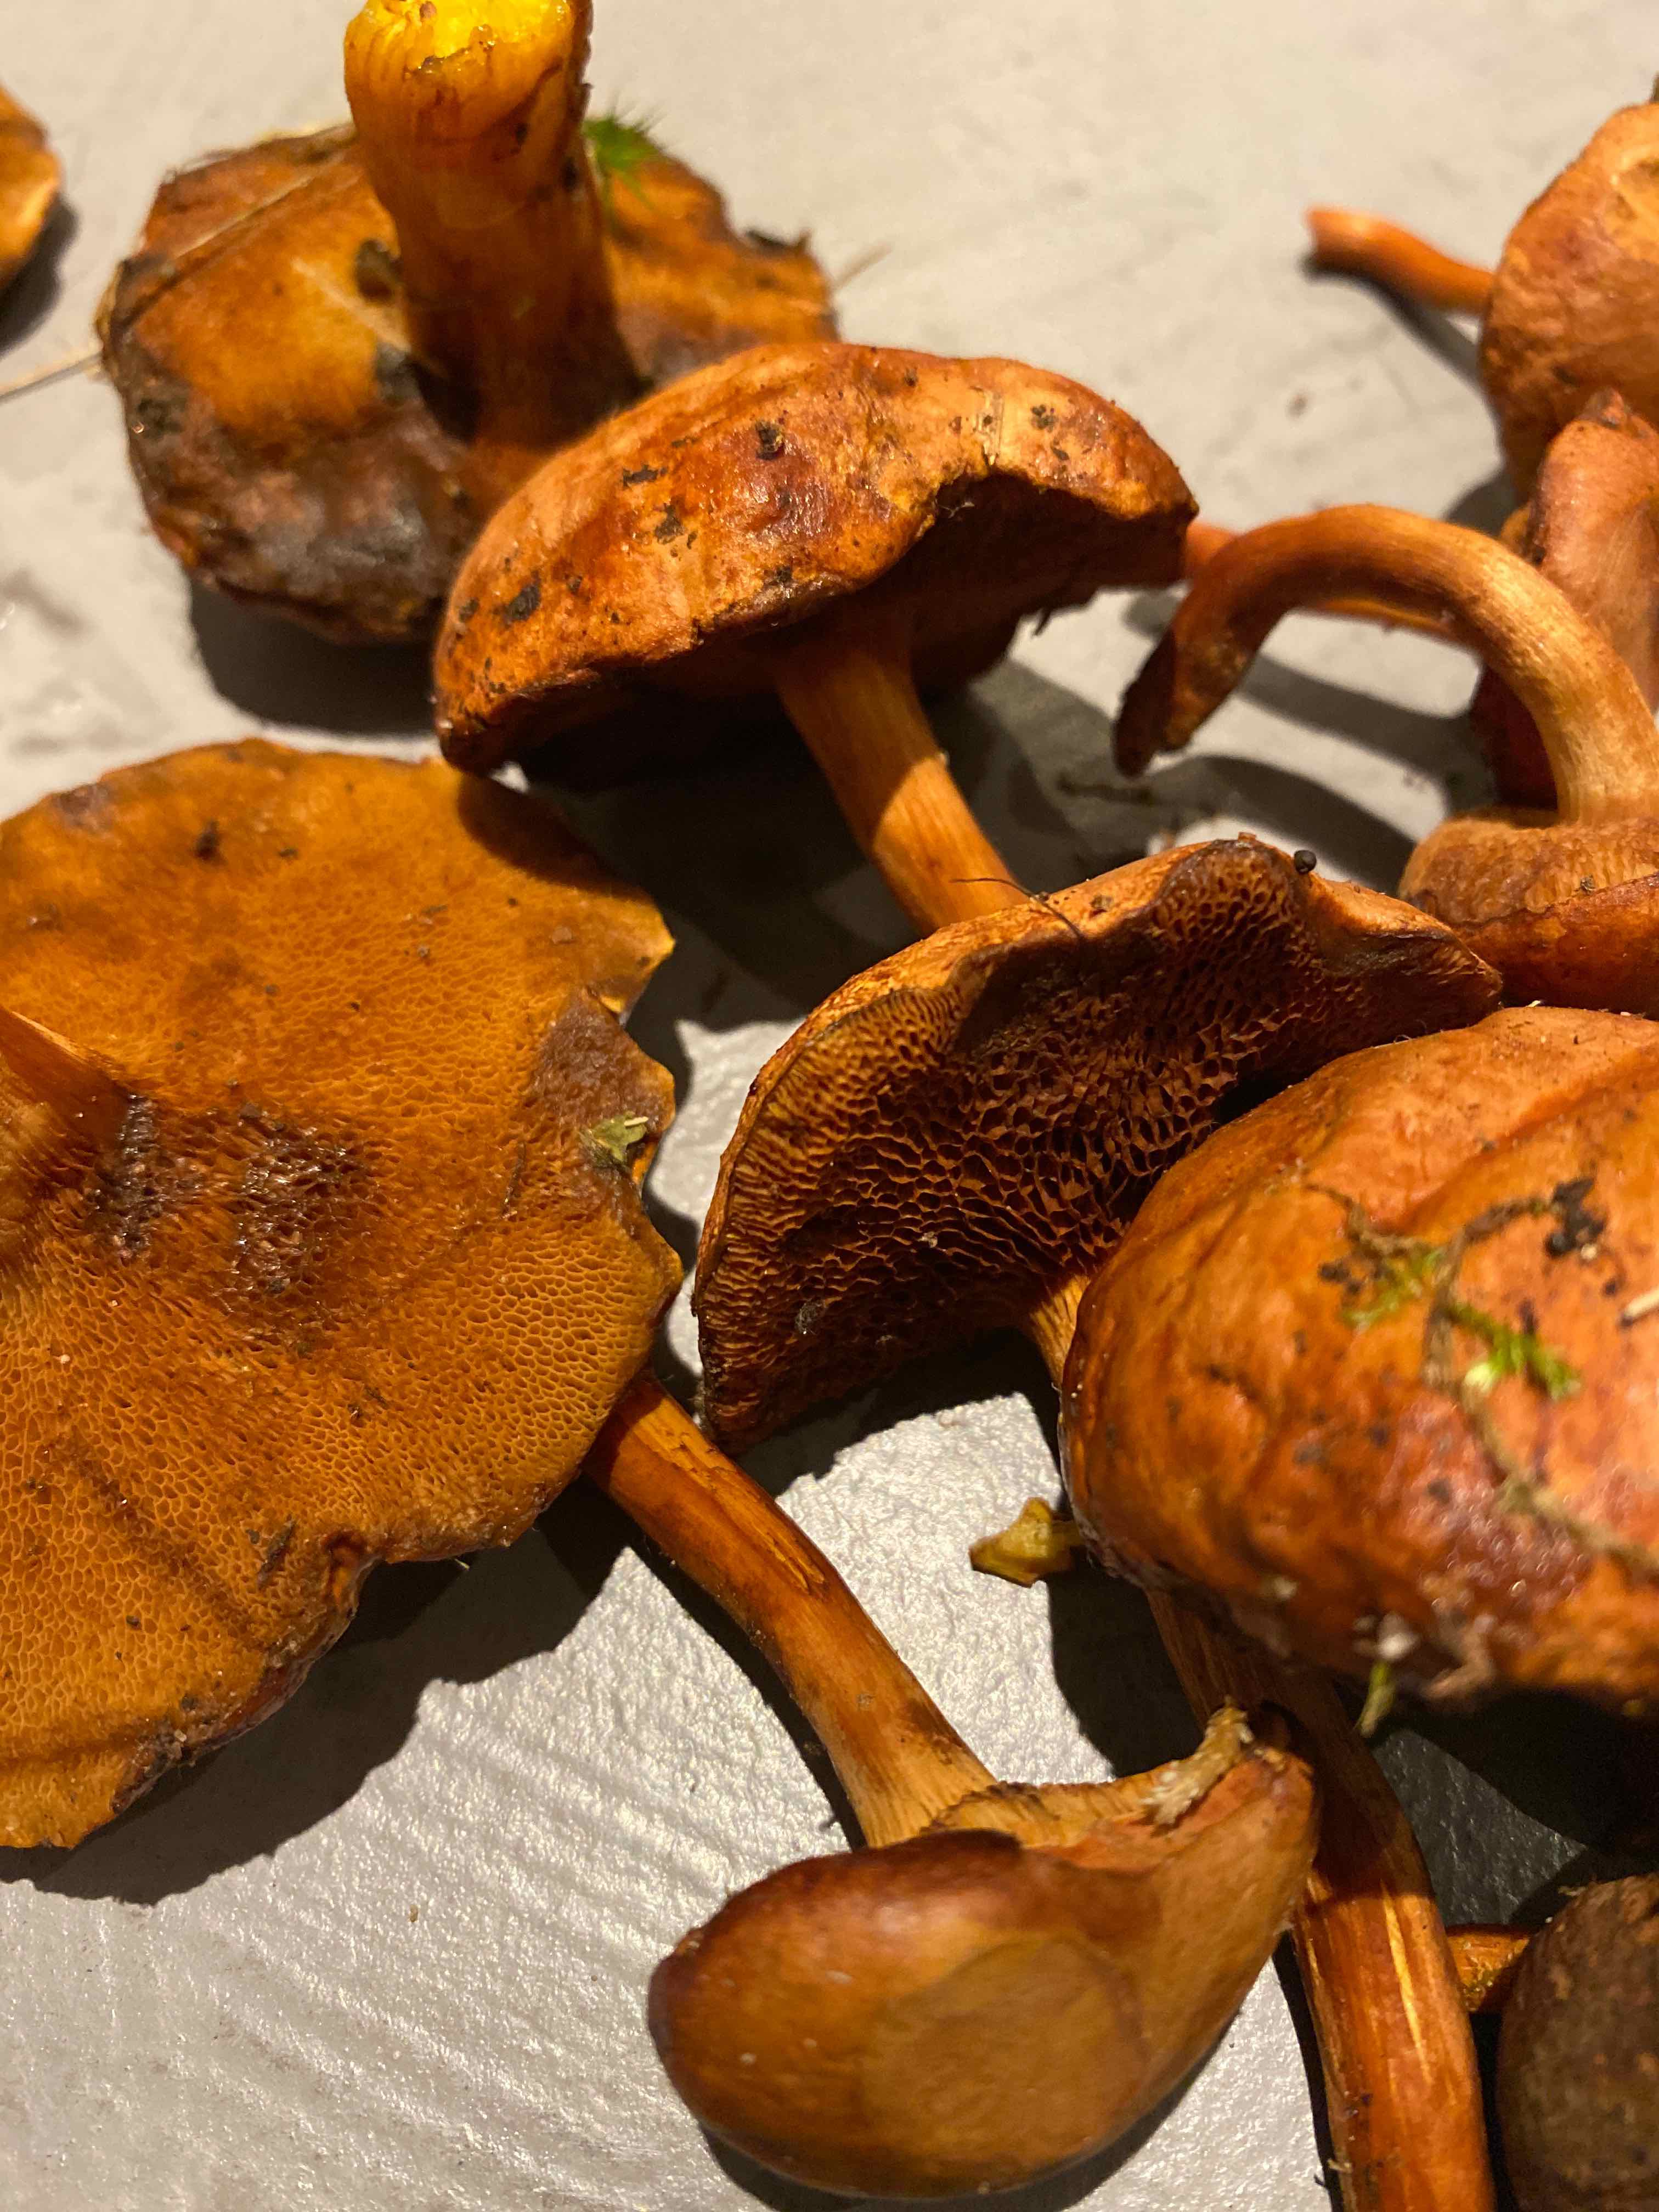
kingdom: Fungi
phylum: Basidiomycota
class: Agaricomycetes
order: Boletales
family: Boletaceae
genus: Chalciporus
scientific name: Chalciporus piperatus
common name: peberrørhat
